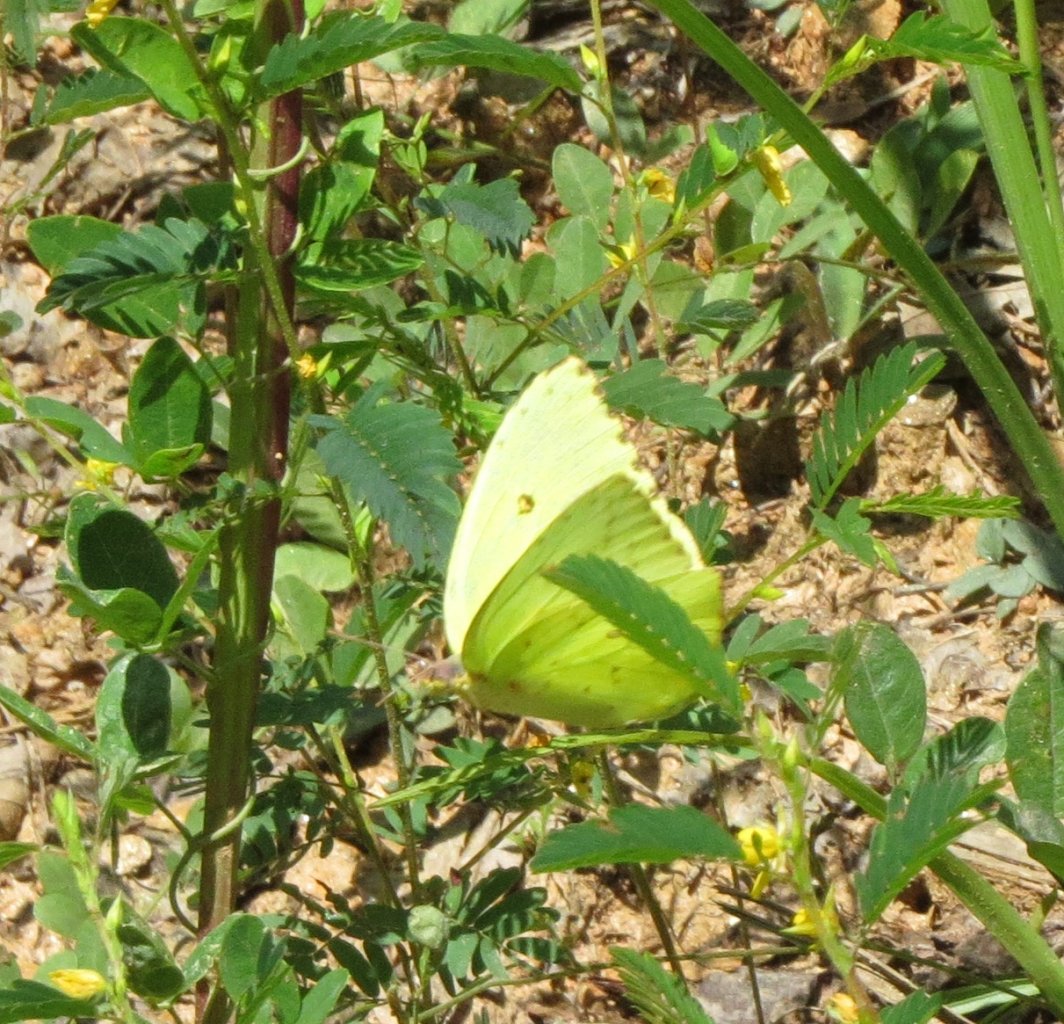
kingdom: Animalia
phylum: Arthropoda
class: Insecta
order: Lepidoptera
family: Pieridae
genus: Phoebis
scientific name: Phoebis sennae
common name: Cloudless Sulphur
